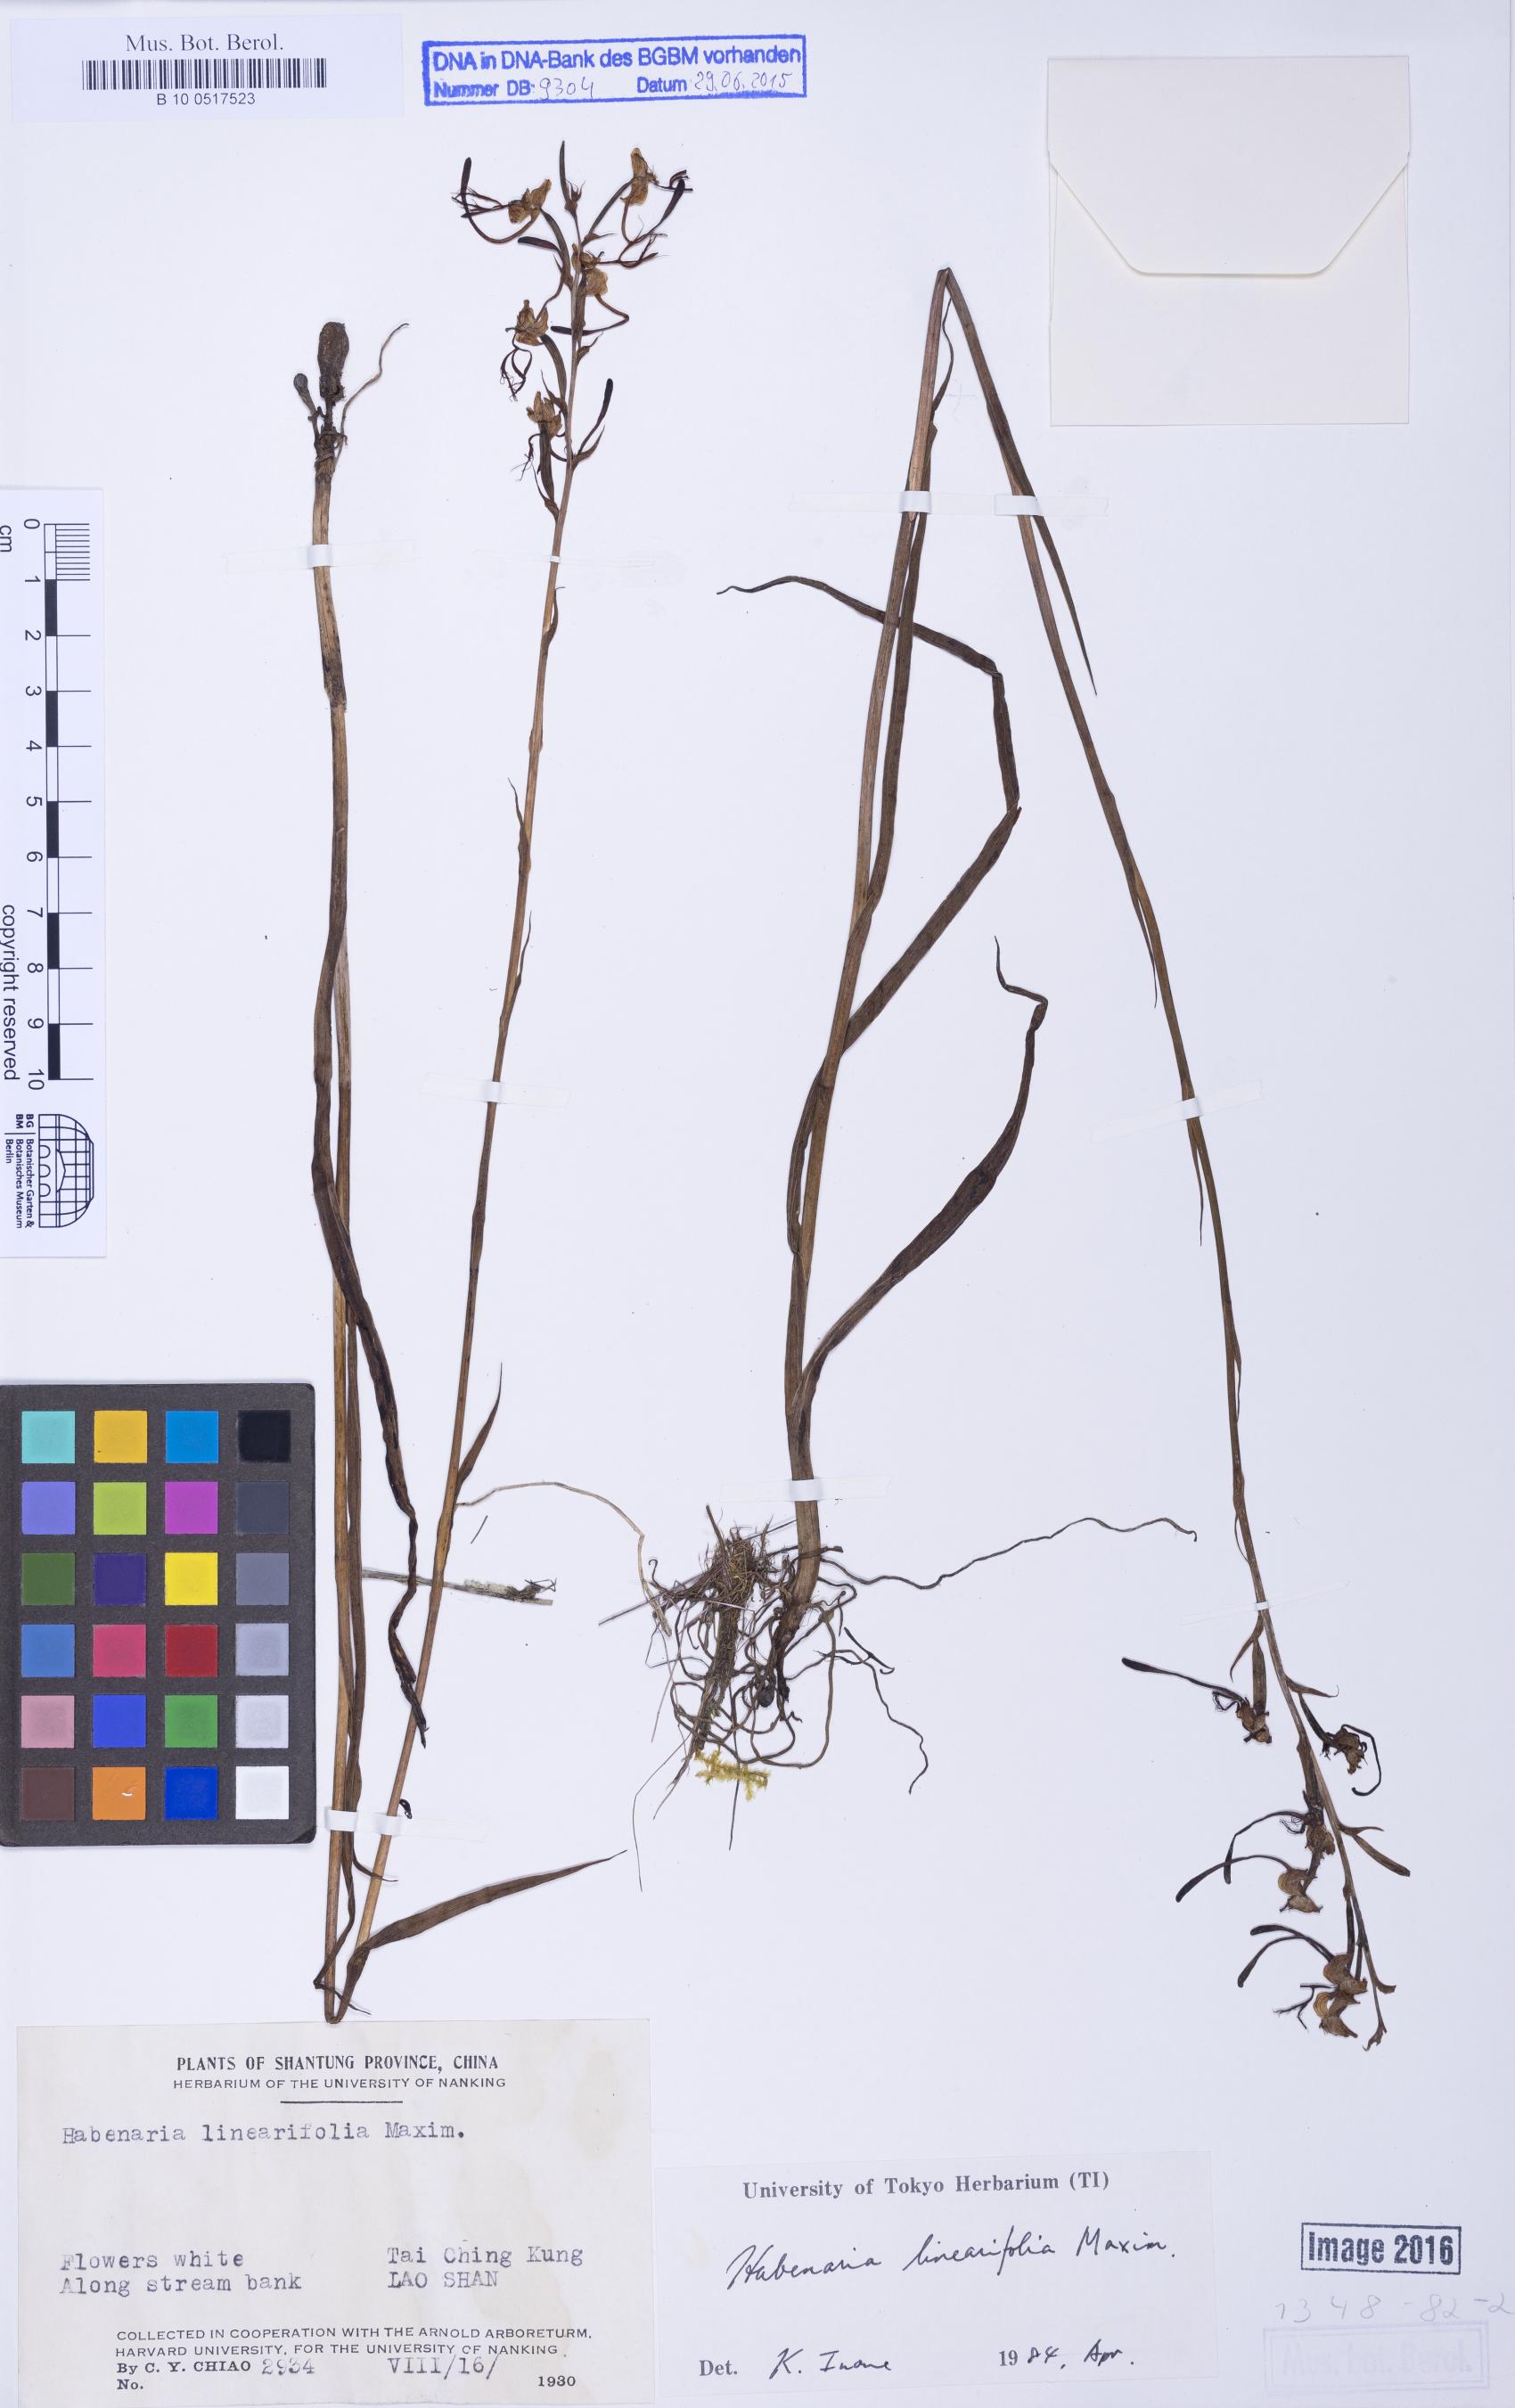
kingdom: Plantae
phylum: Tracheophyta
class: Liliopsida
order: Asparagales
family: Orchidaceae
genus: Habenaria
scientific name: Habenaria linearifolia
